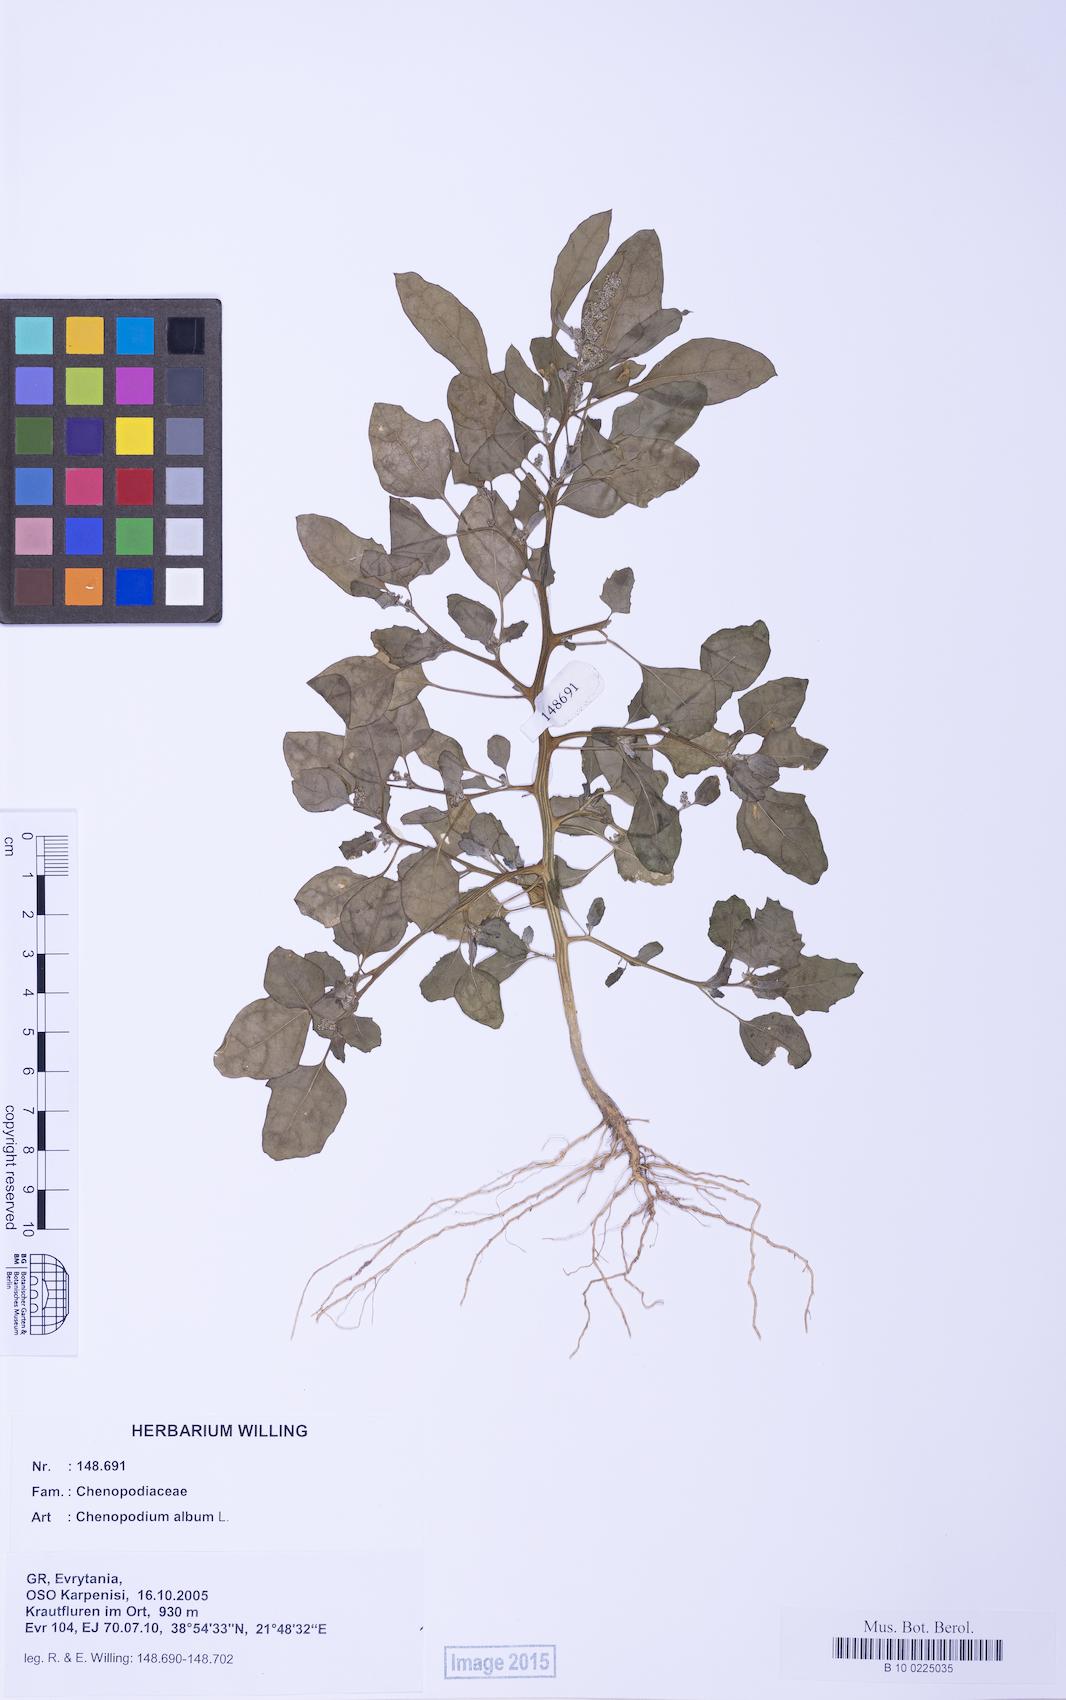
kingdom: Plantae
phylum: Tracheophyta
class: Magnoliopsida
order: Caryophyllales
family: Amaranthaceae
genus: Chenopodium
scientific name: Chenopodium album
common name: Fat-hen
